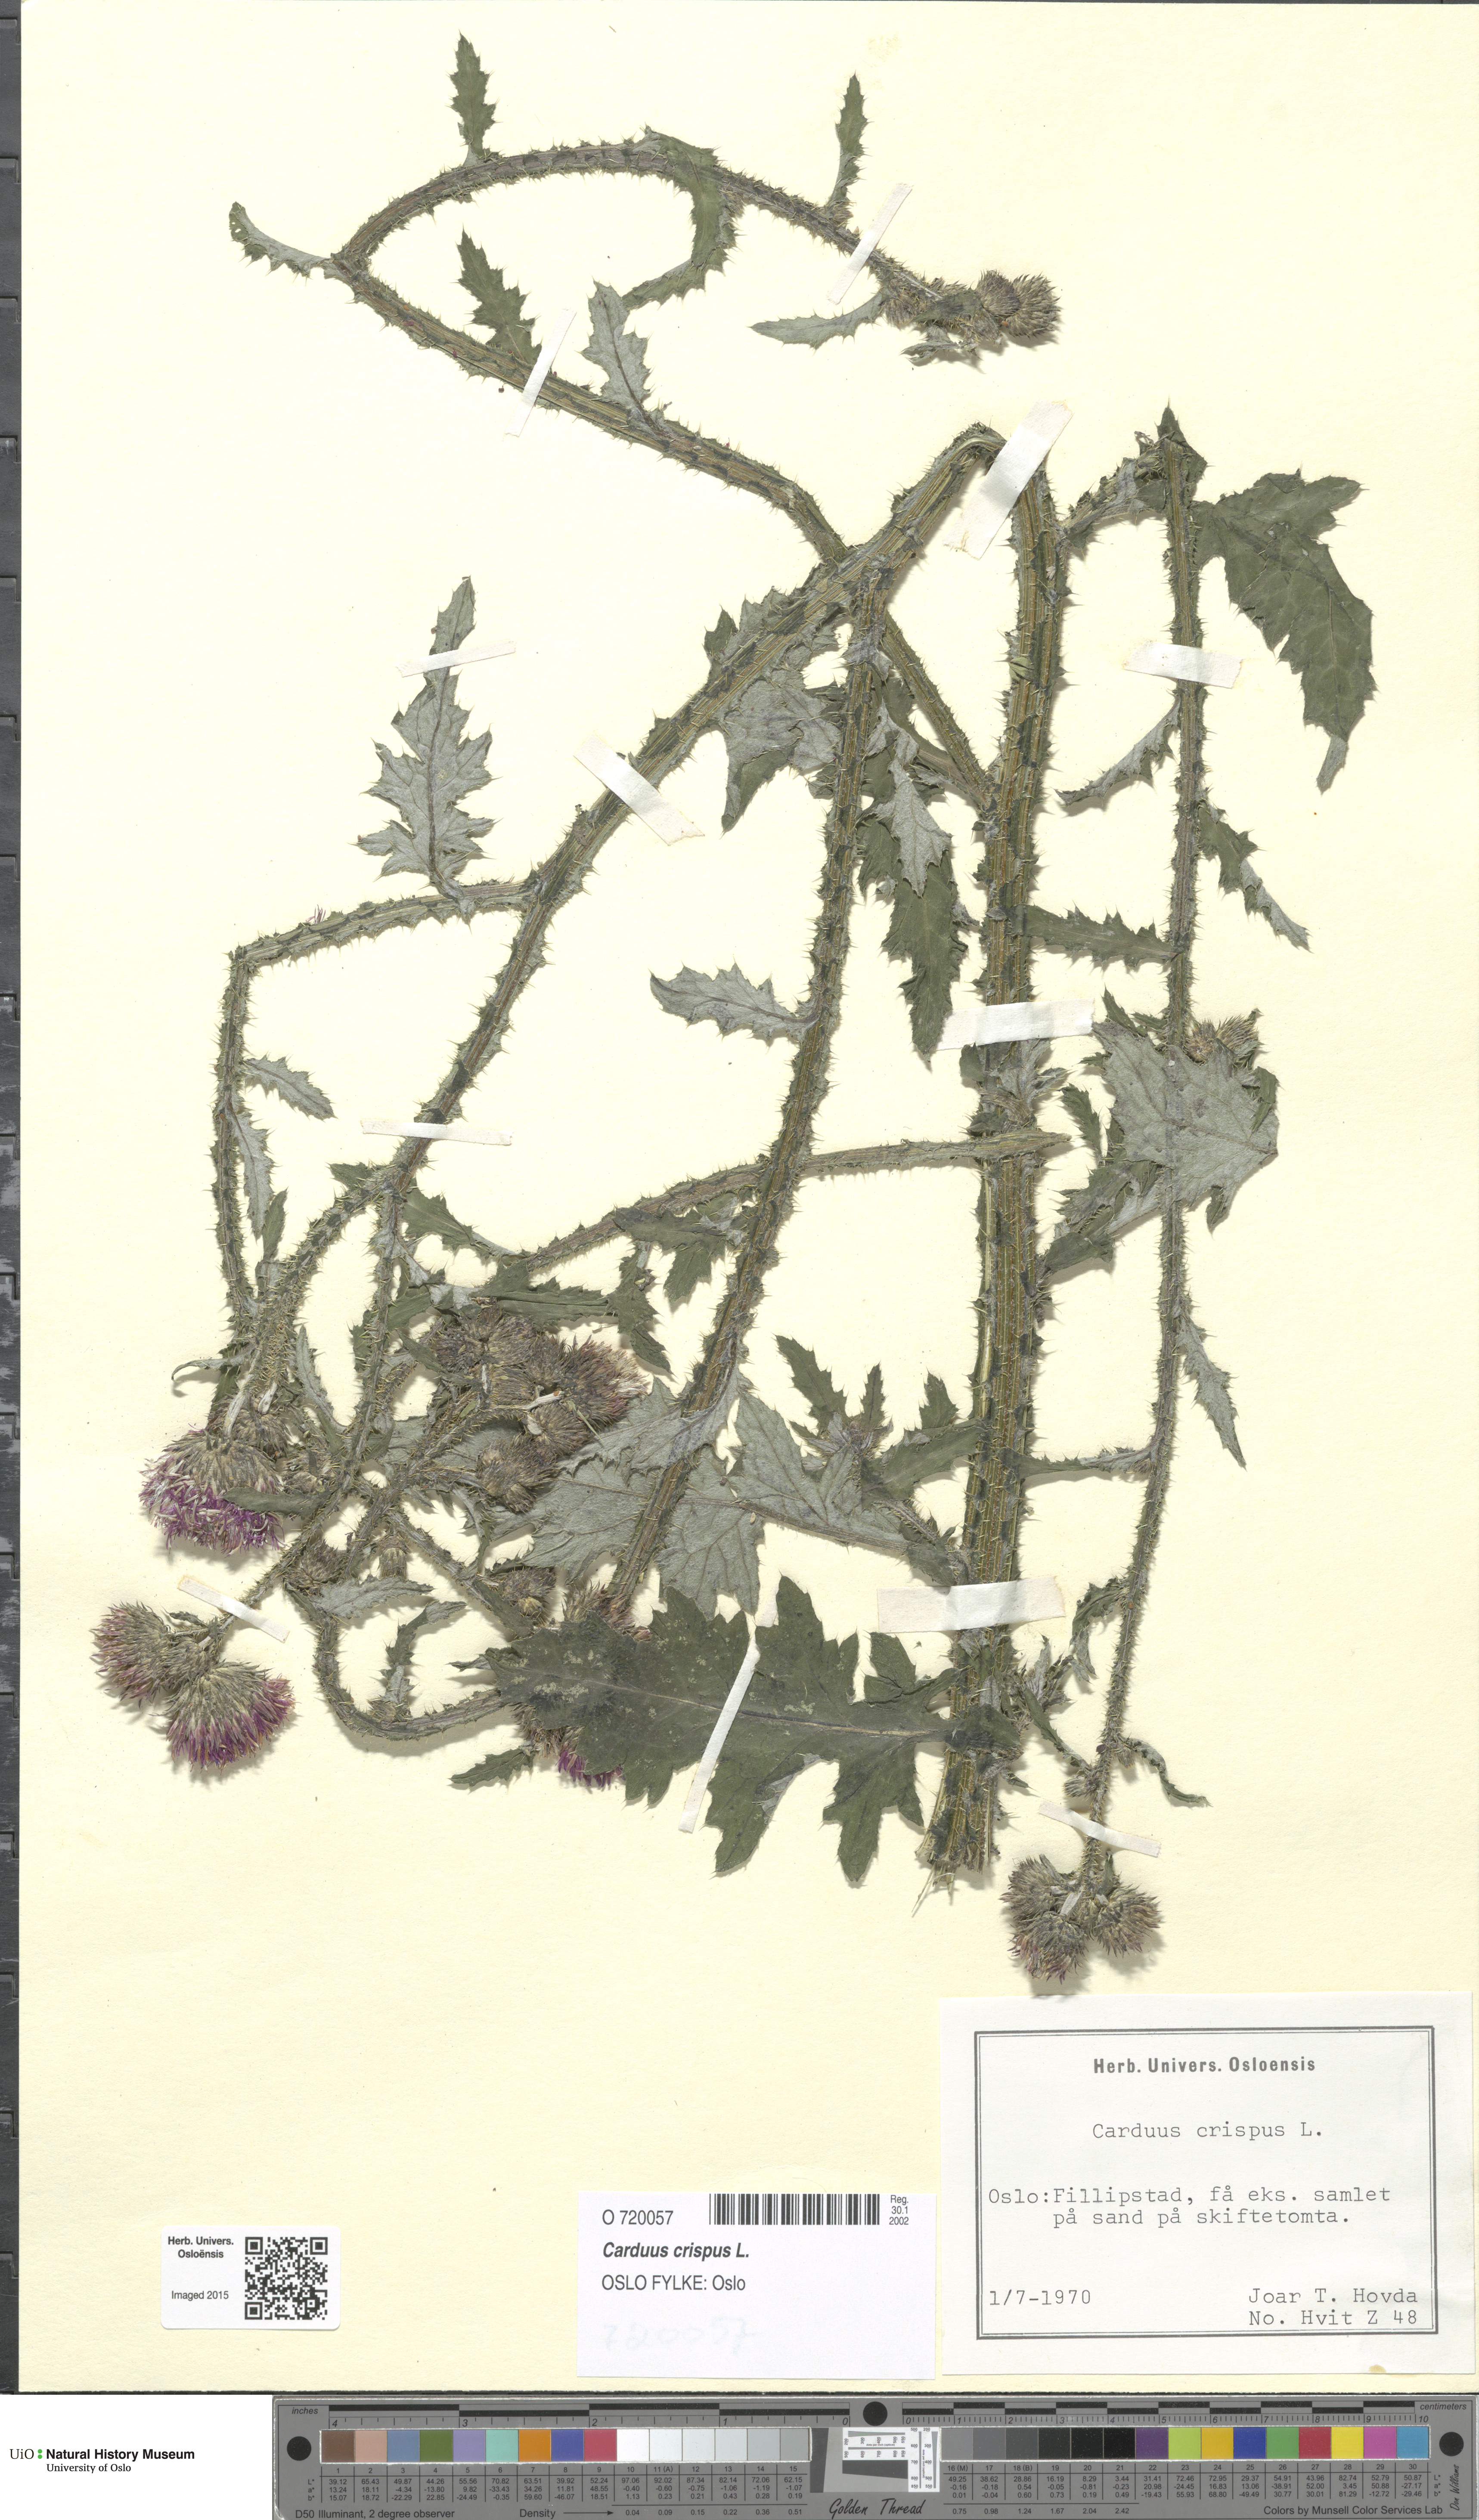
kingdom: Plantae
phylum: Tracheophyta
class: Magnoliopsida
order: Asterales
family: Asteraceae
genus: Carduus
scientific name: Carduus crispus
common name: Welted thistle
